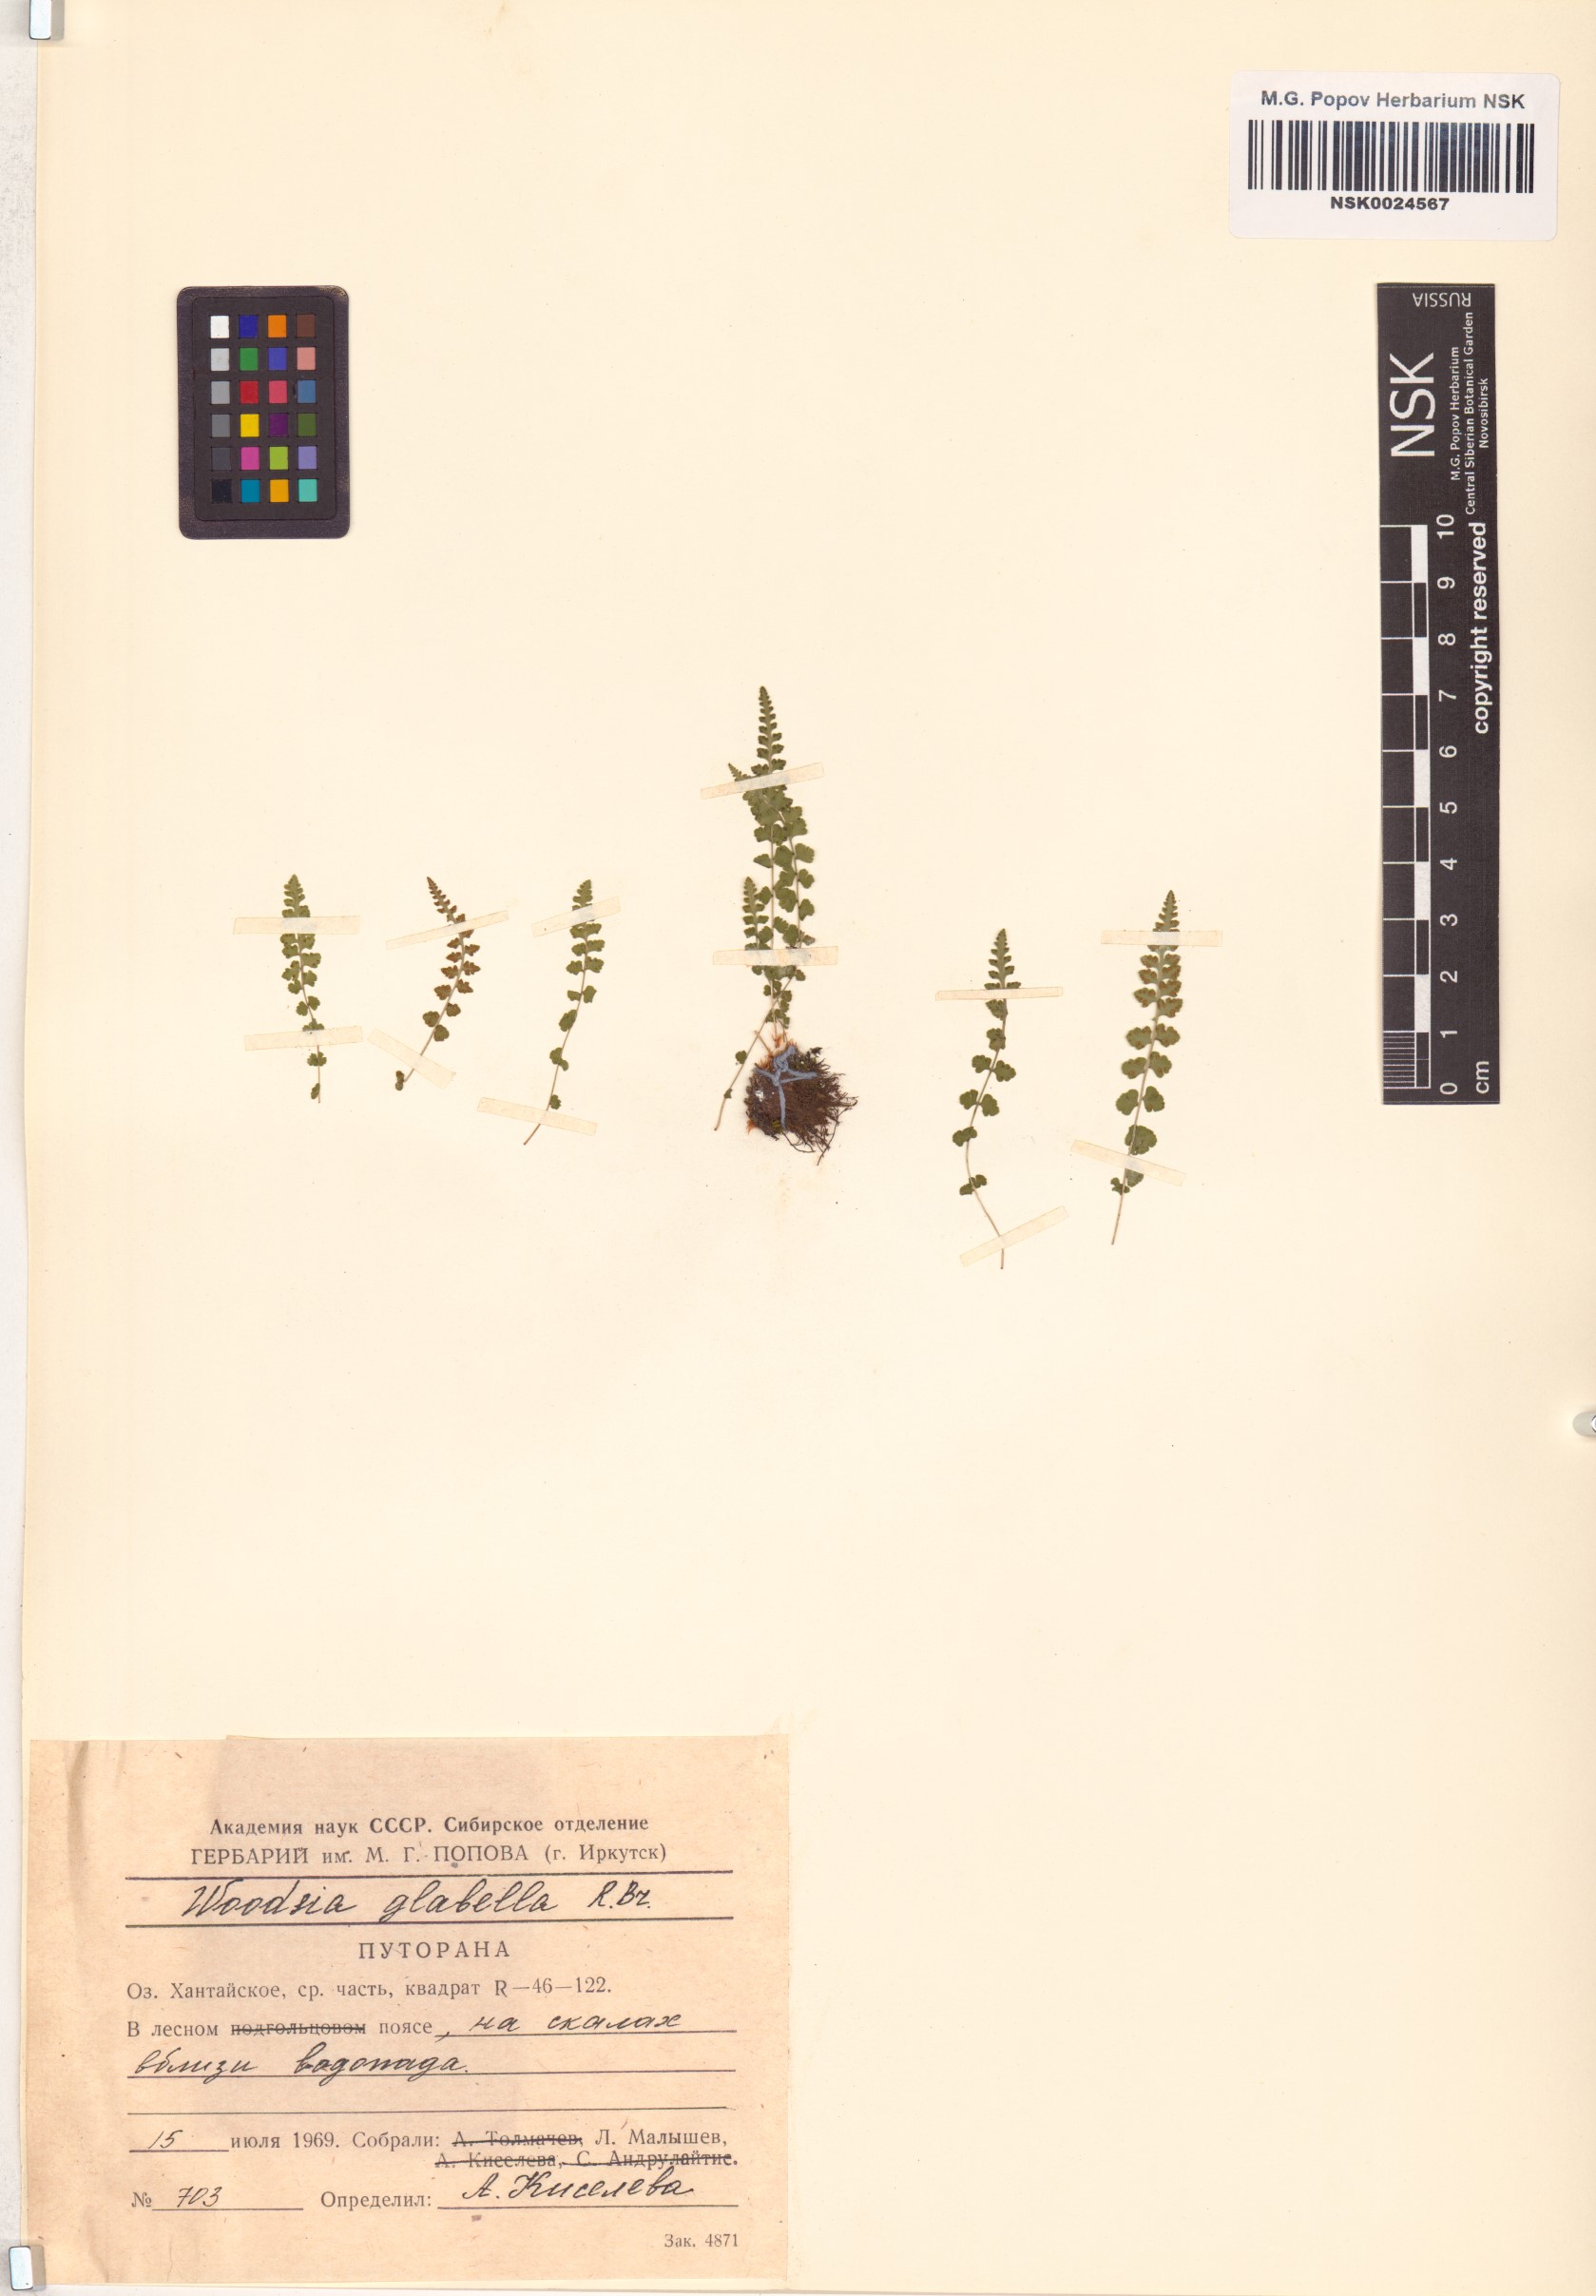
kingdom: Plantae
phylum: Tracheophyta
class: Polypodiopsida
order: Polypodiales
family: Woodsiaceae
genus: Woodsia
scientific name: Woodsia glabella
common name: Smooth woodsia
